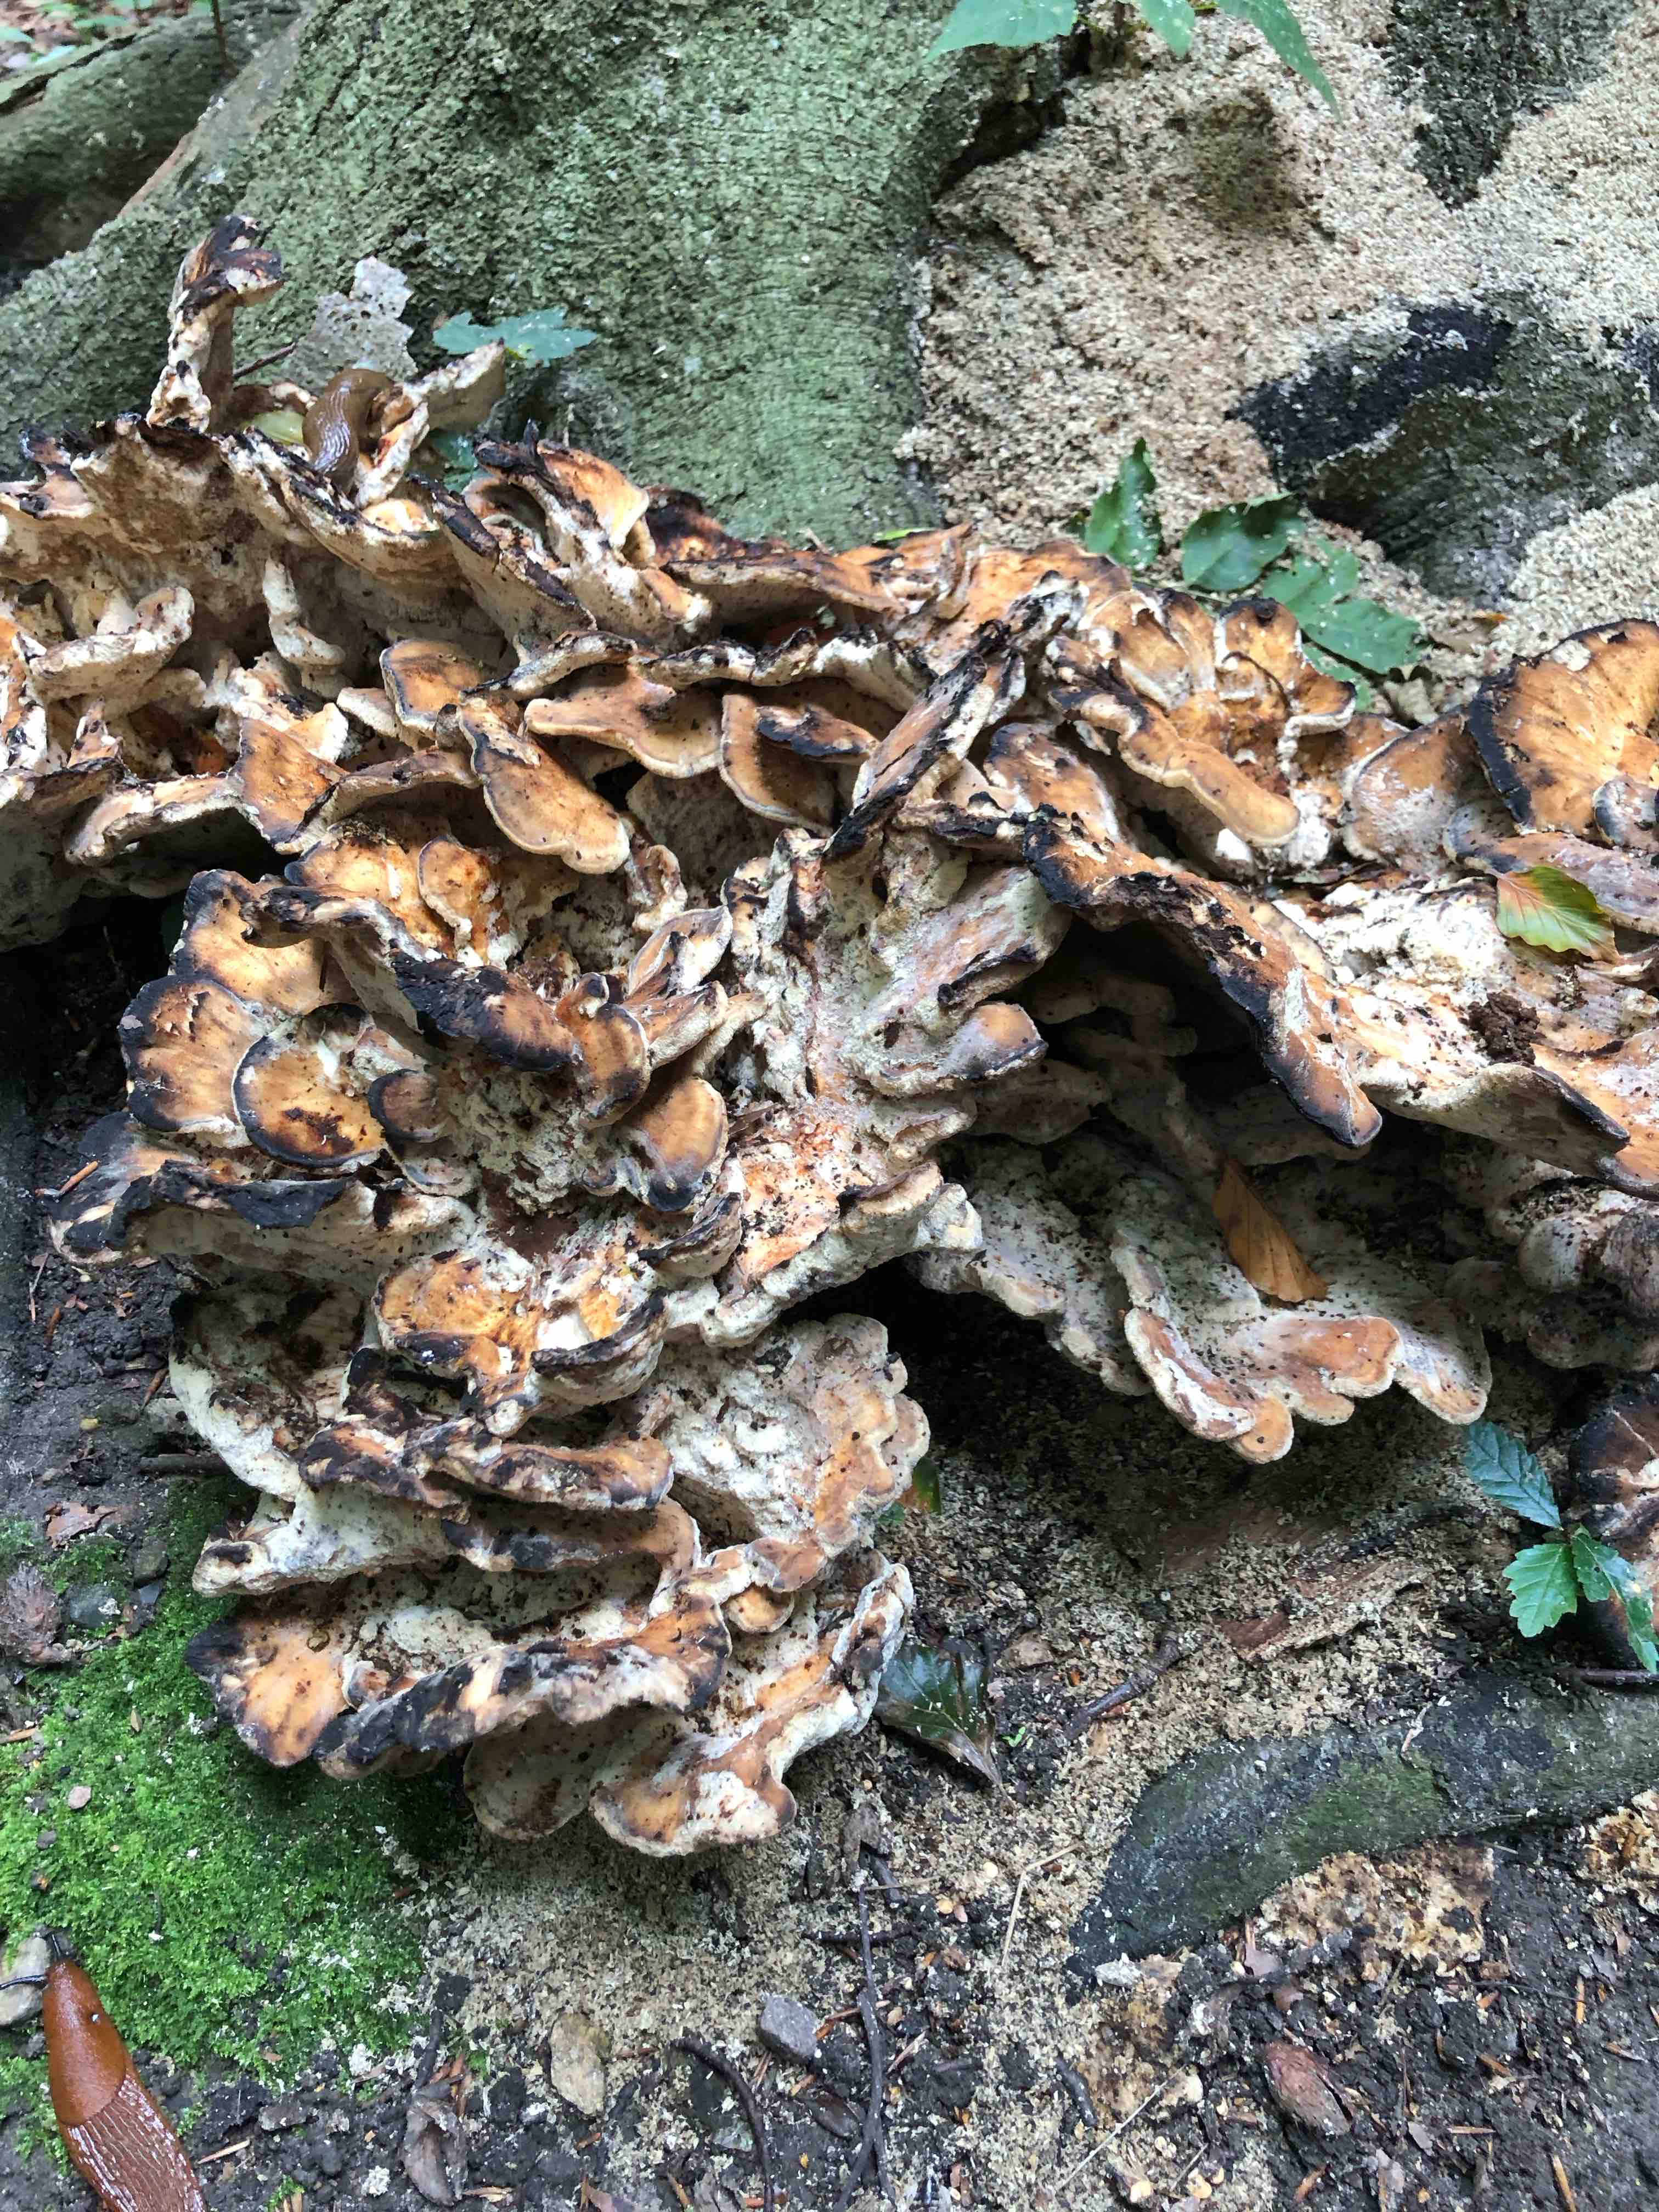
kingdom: Fungi
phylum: Basidiomycota
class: Agaricomycetes
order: Polyporales
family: Meripilaceae
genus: Meripilus
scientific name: Meripilus giganteus
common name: kæmpeporesvamp
